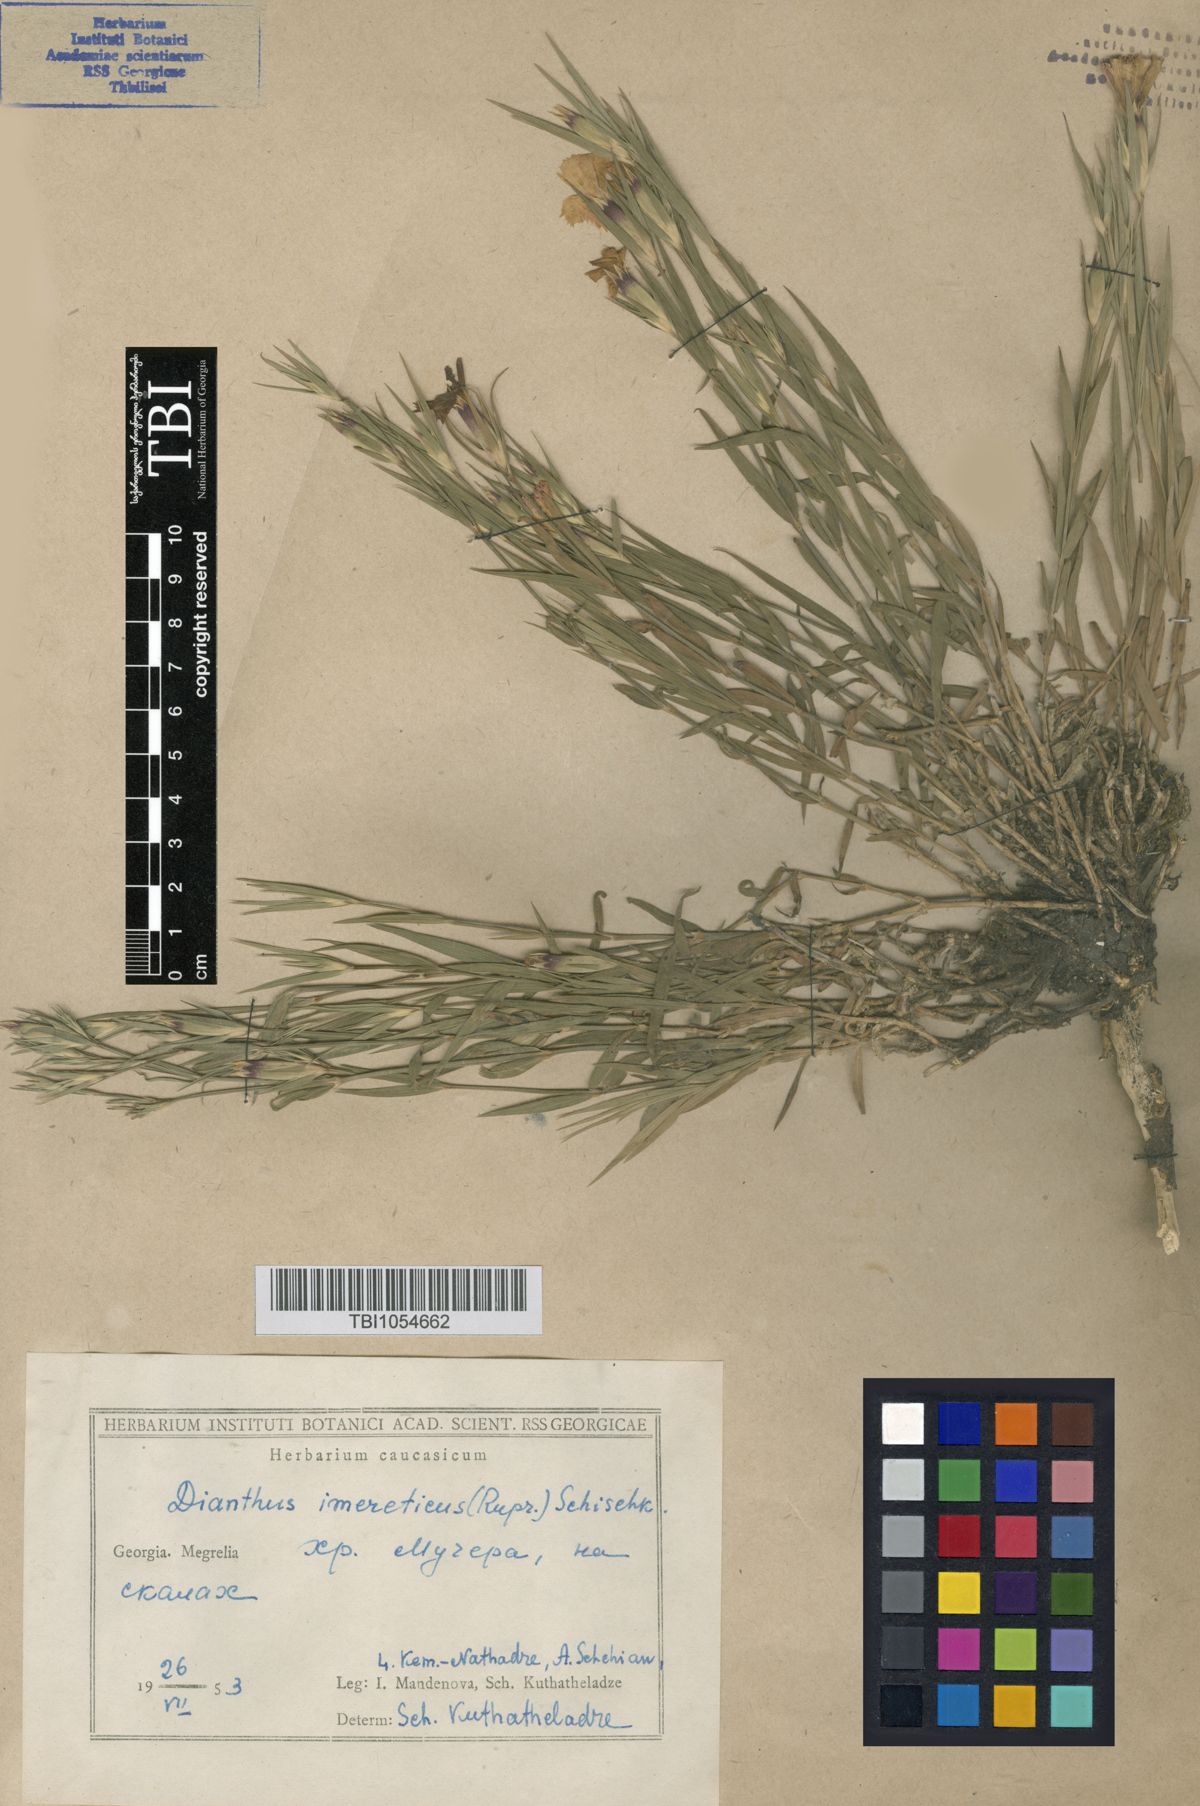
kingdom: Plantae
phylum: Tracheophyta
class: Magnoliopsida
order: Caryophyllales
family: Caryophyllaceae
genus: Dianthus
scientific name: Dianthus kusnezovii
